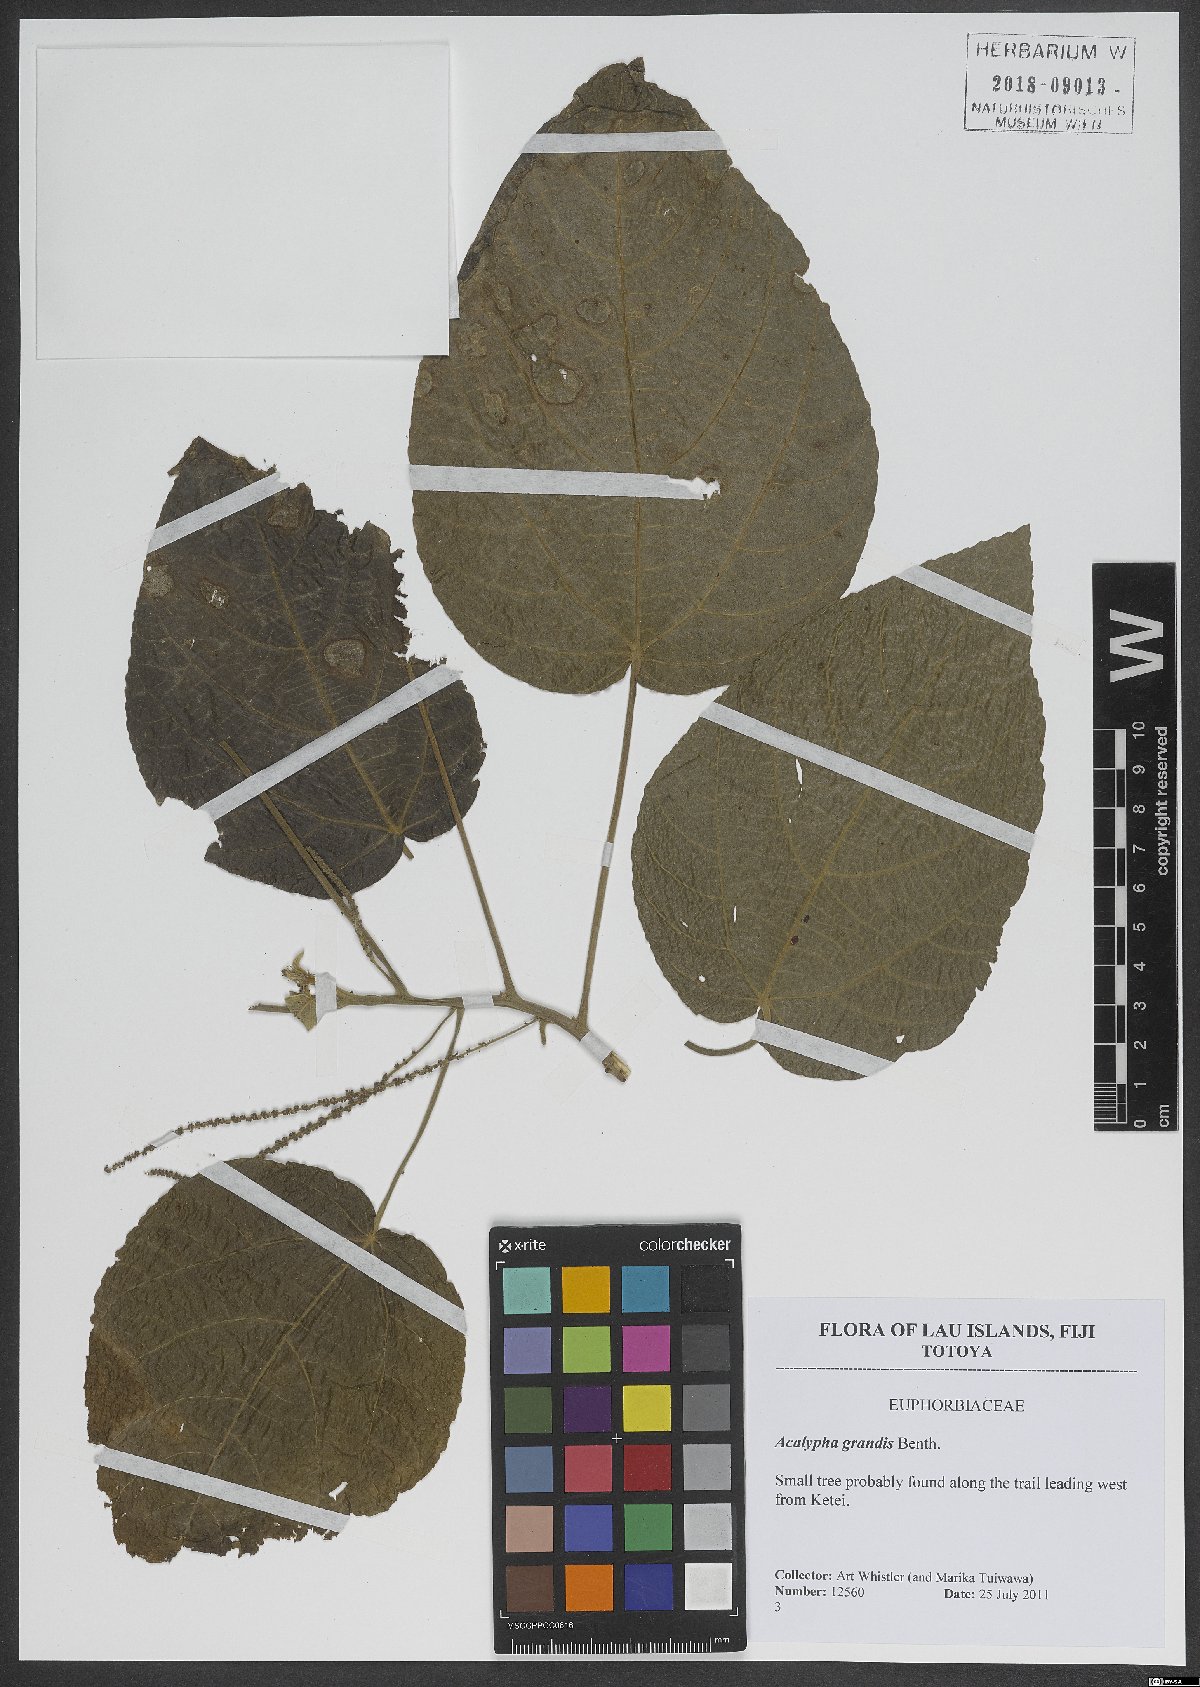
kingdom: Plantae
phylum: Tracheophyta
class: Magnoliopsida
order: Malpighiales
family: Euphorbiaceae
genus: Acalypha
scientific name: Acalypha grandis
